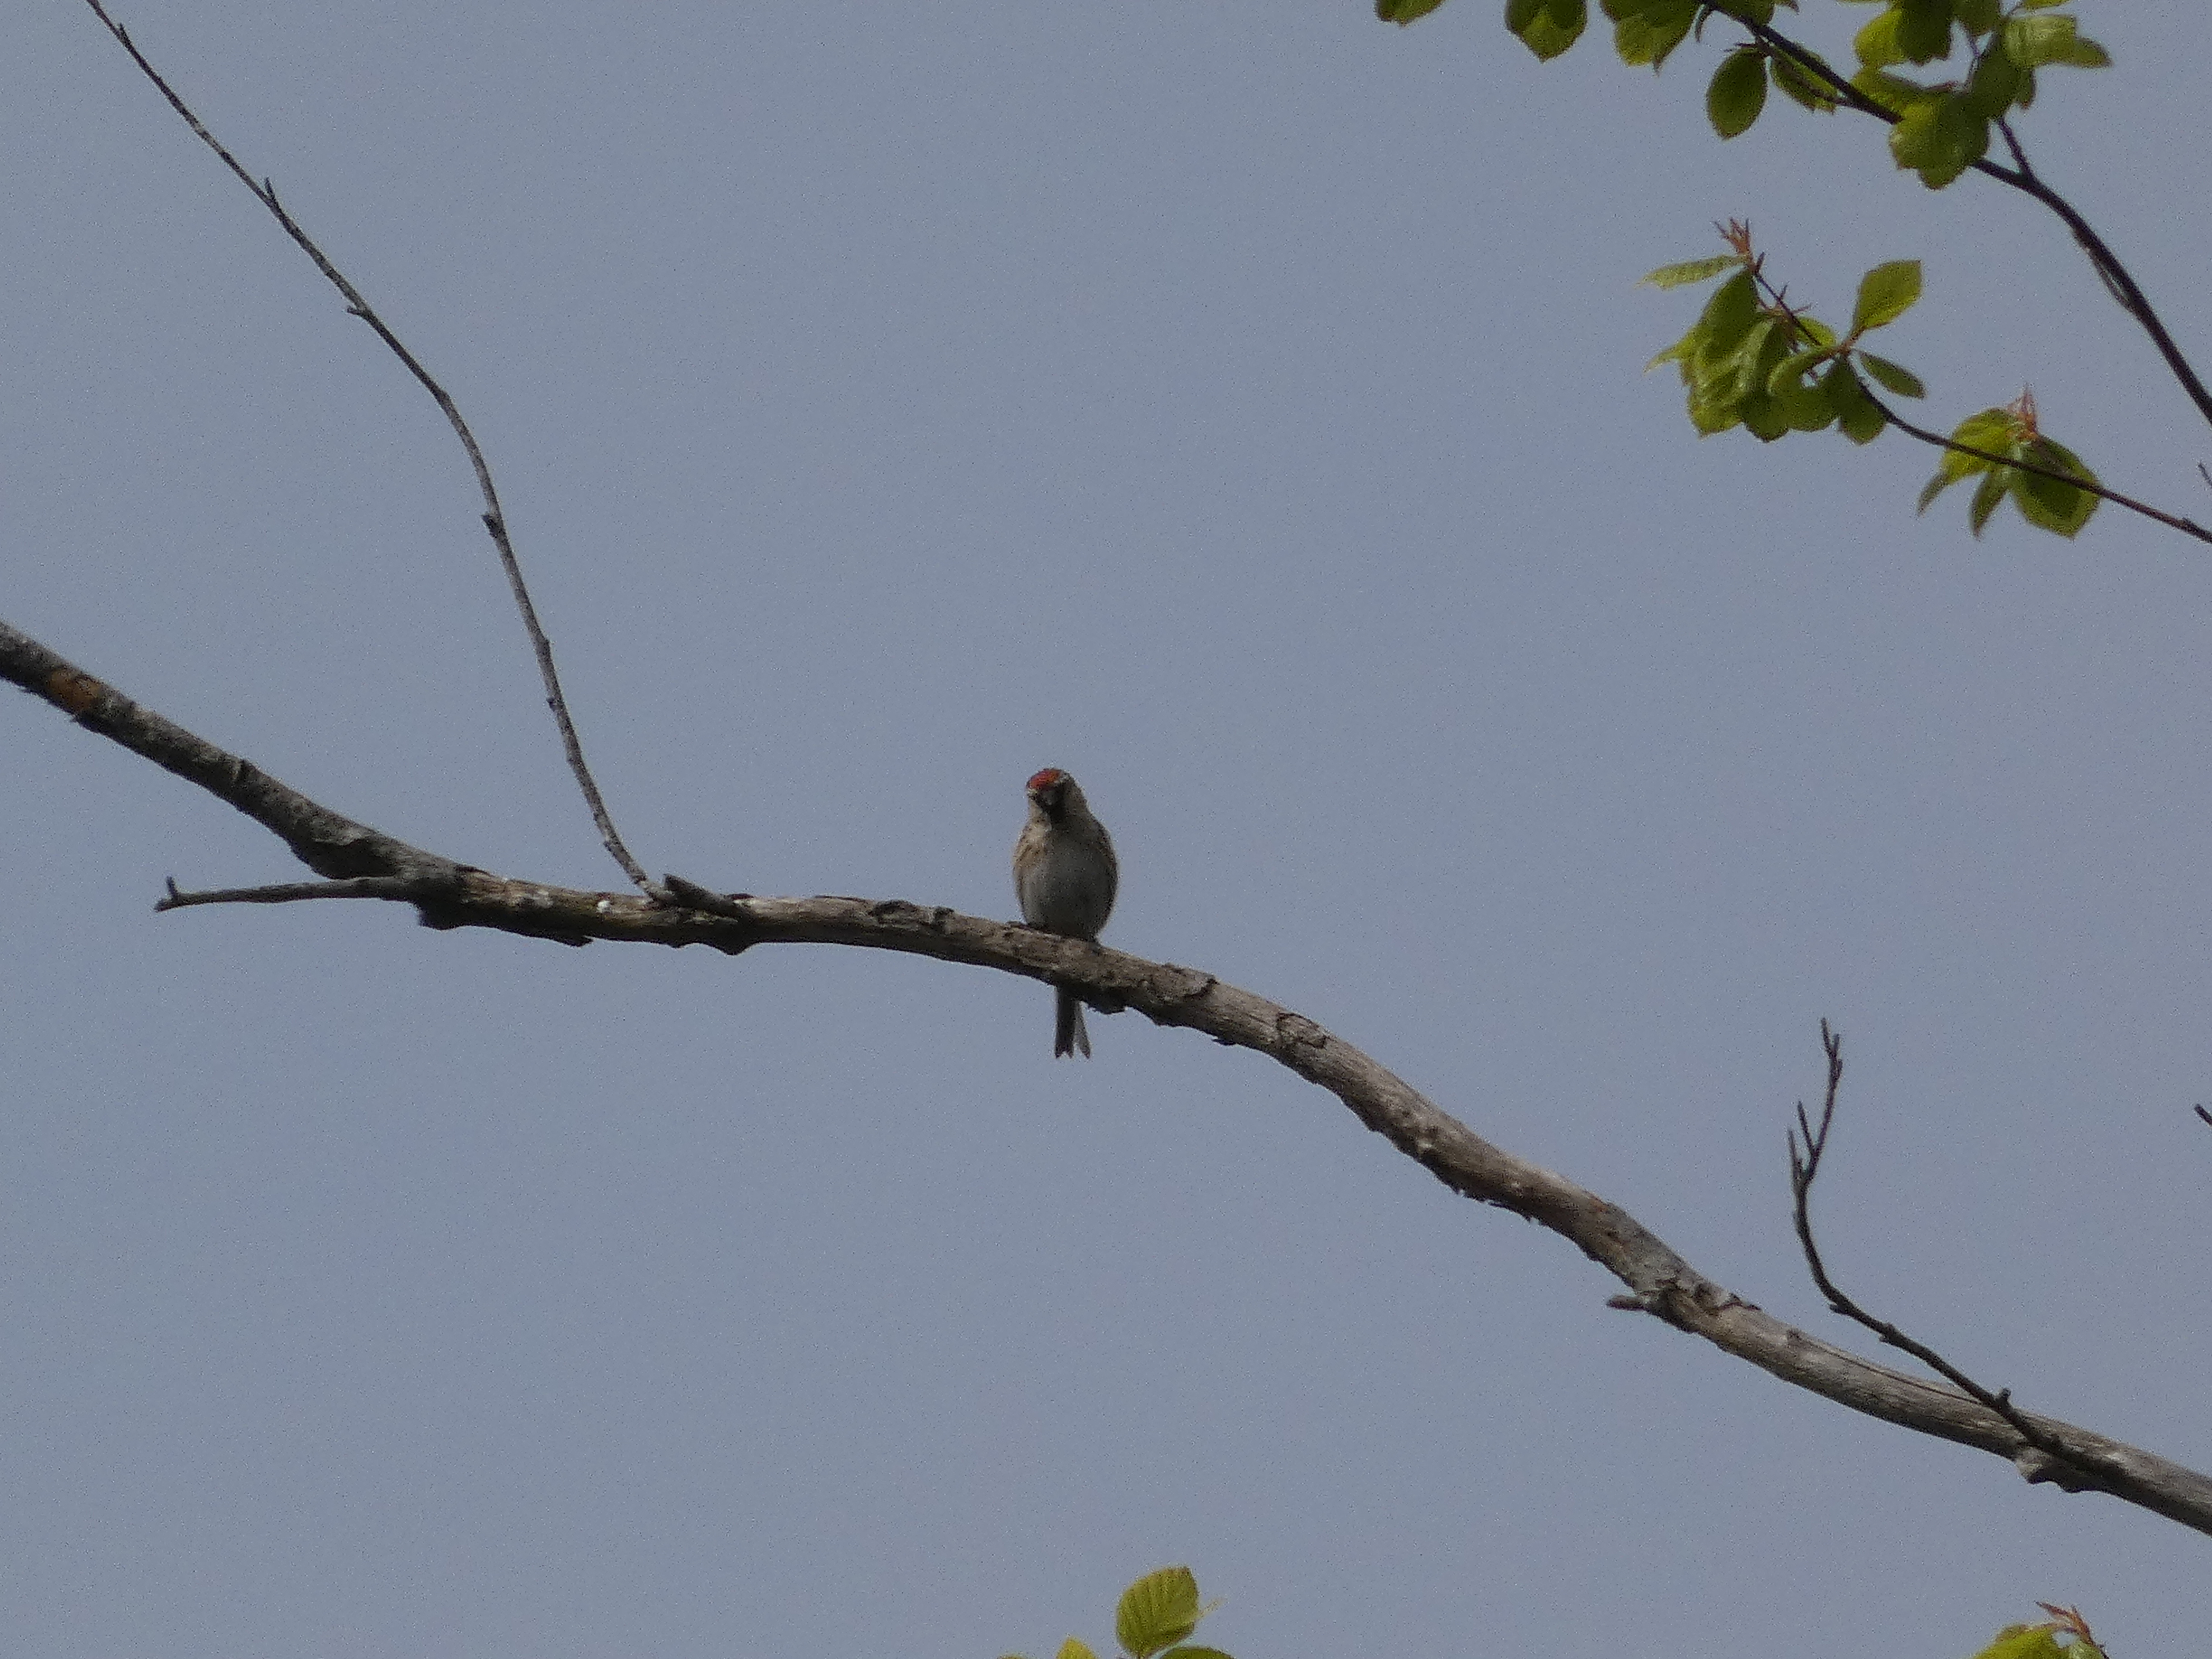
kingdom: Animalia
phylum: Chordata
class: Aves
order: Passeriformes
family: Fringillidae
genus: Acanthis
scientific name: Acanthis flammea
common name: Nordlig gråsisken
